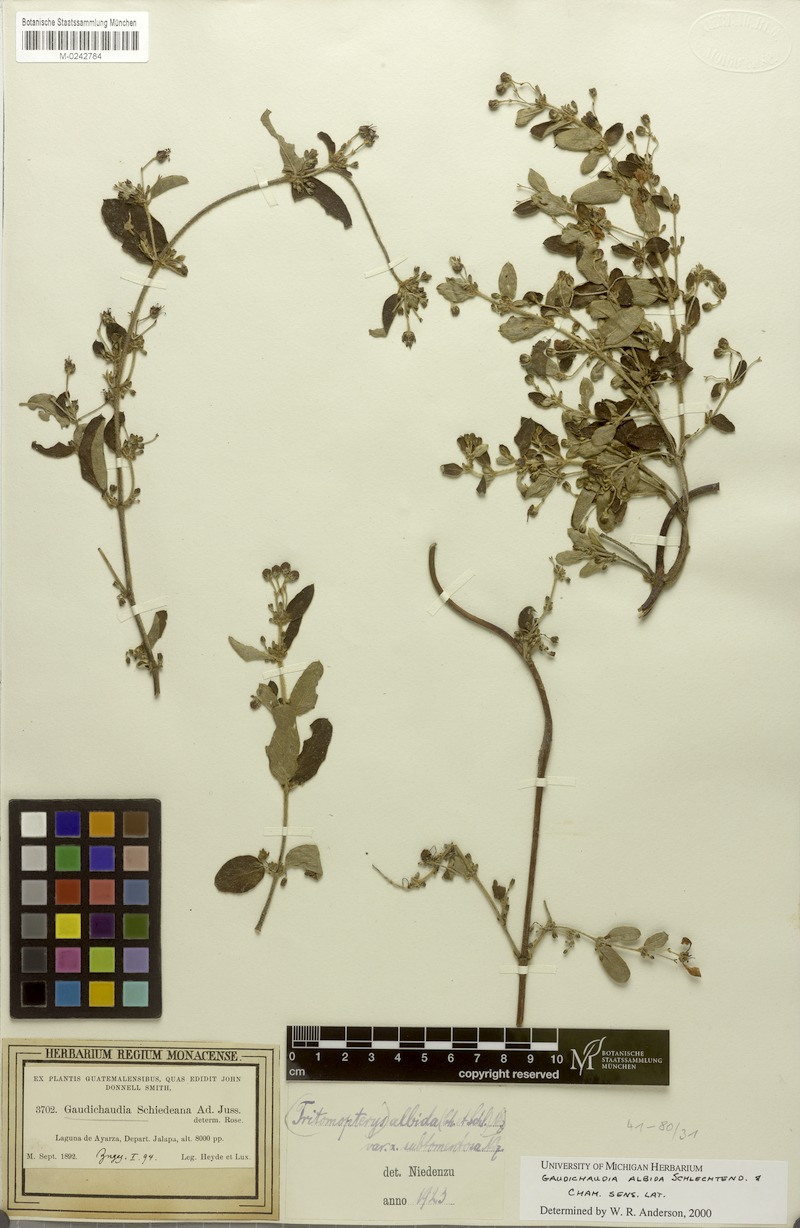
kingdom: Plantae
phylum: Tracheophyta
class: Magnoliopsida
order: Malpighiales
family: Malpighiaceae
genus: Gaudichaudia
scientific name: Gaudichaudia albida
